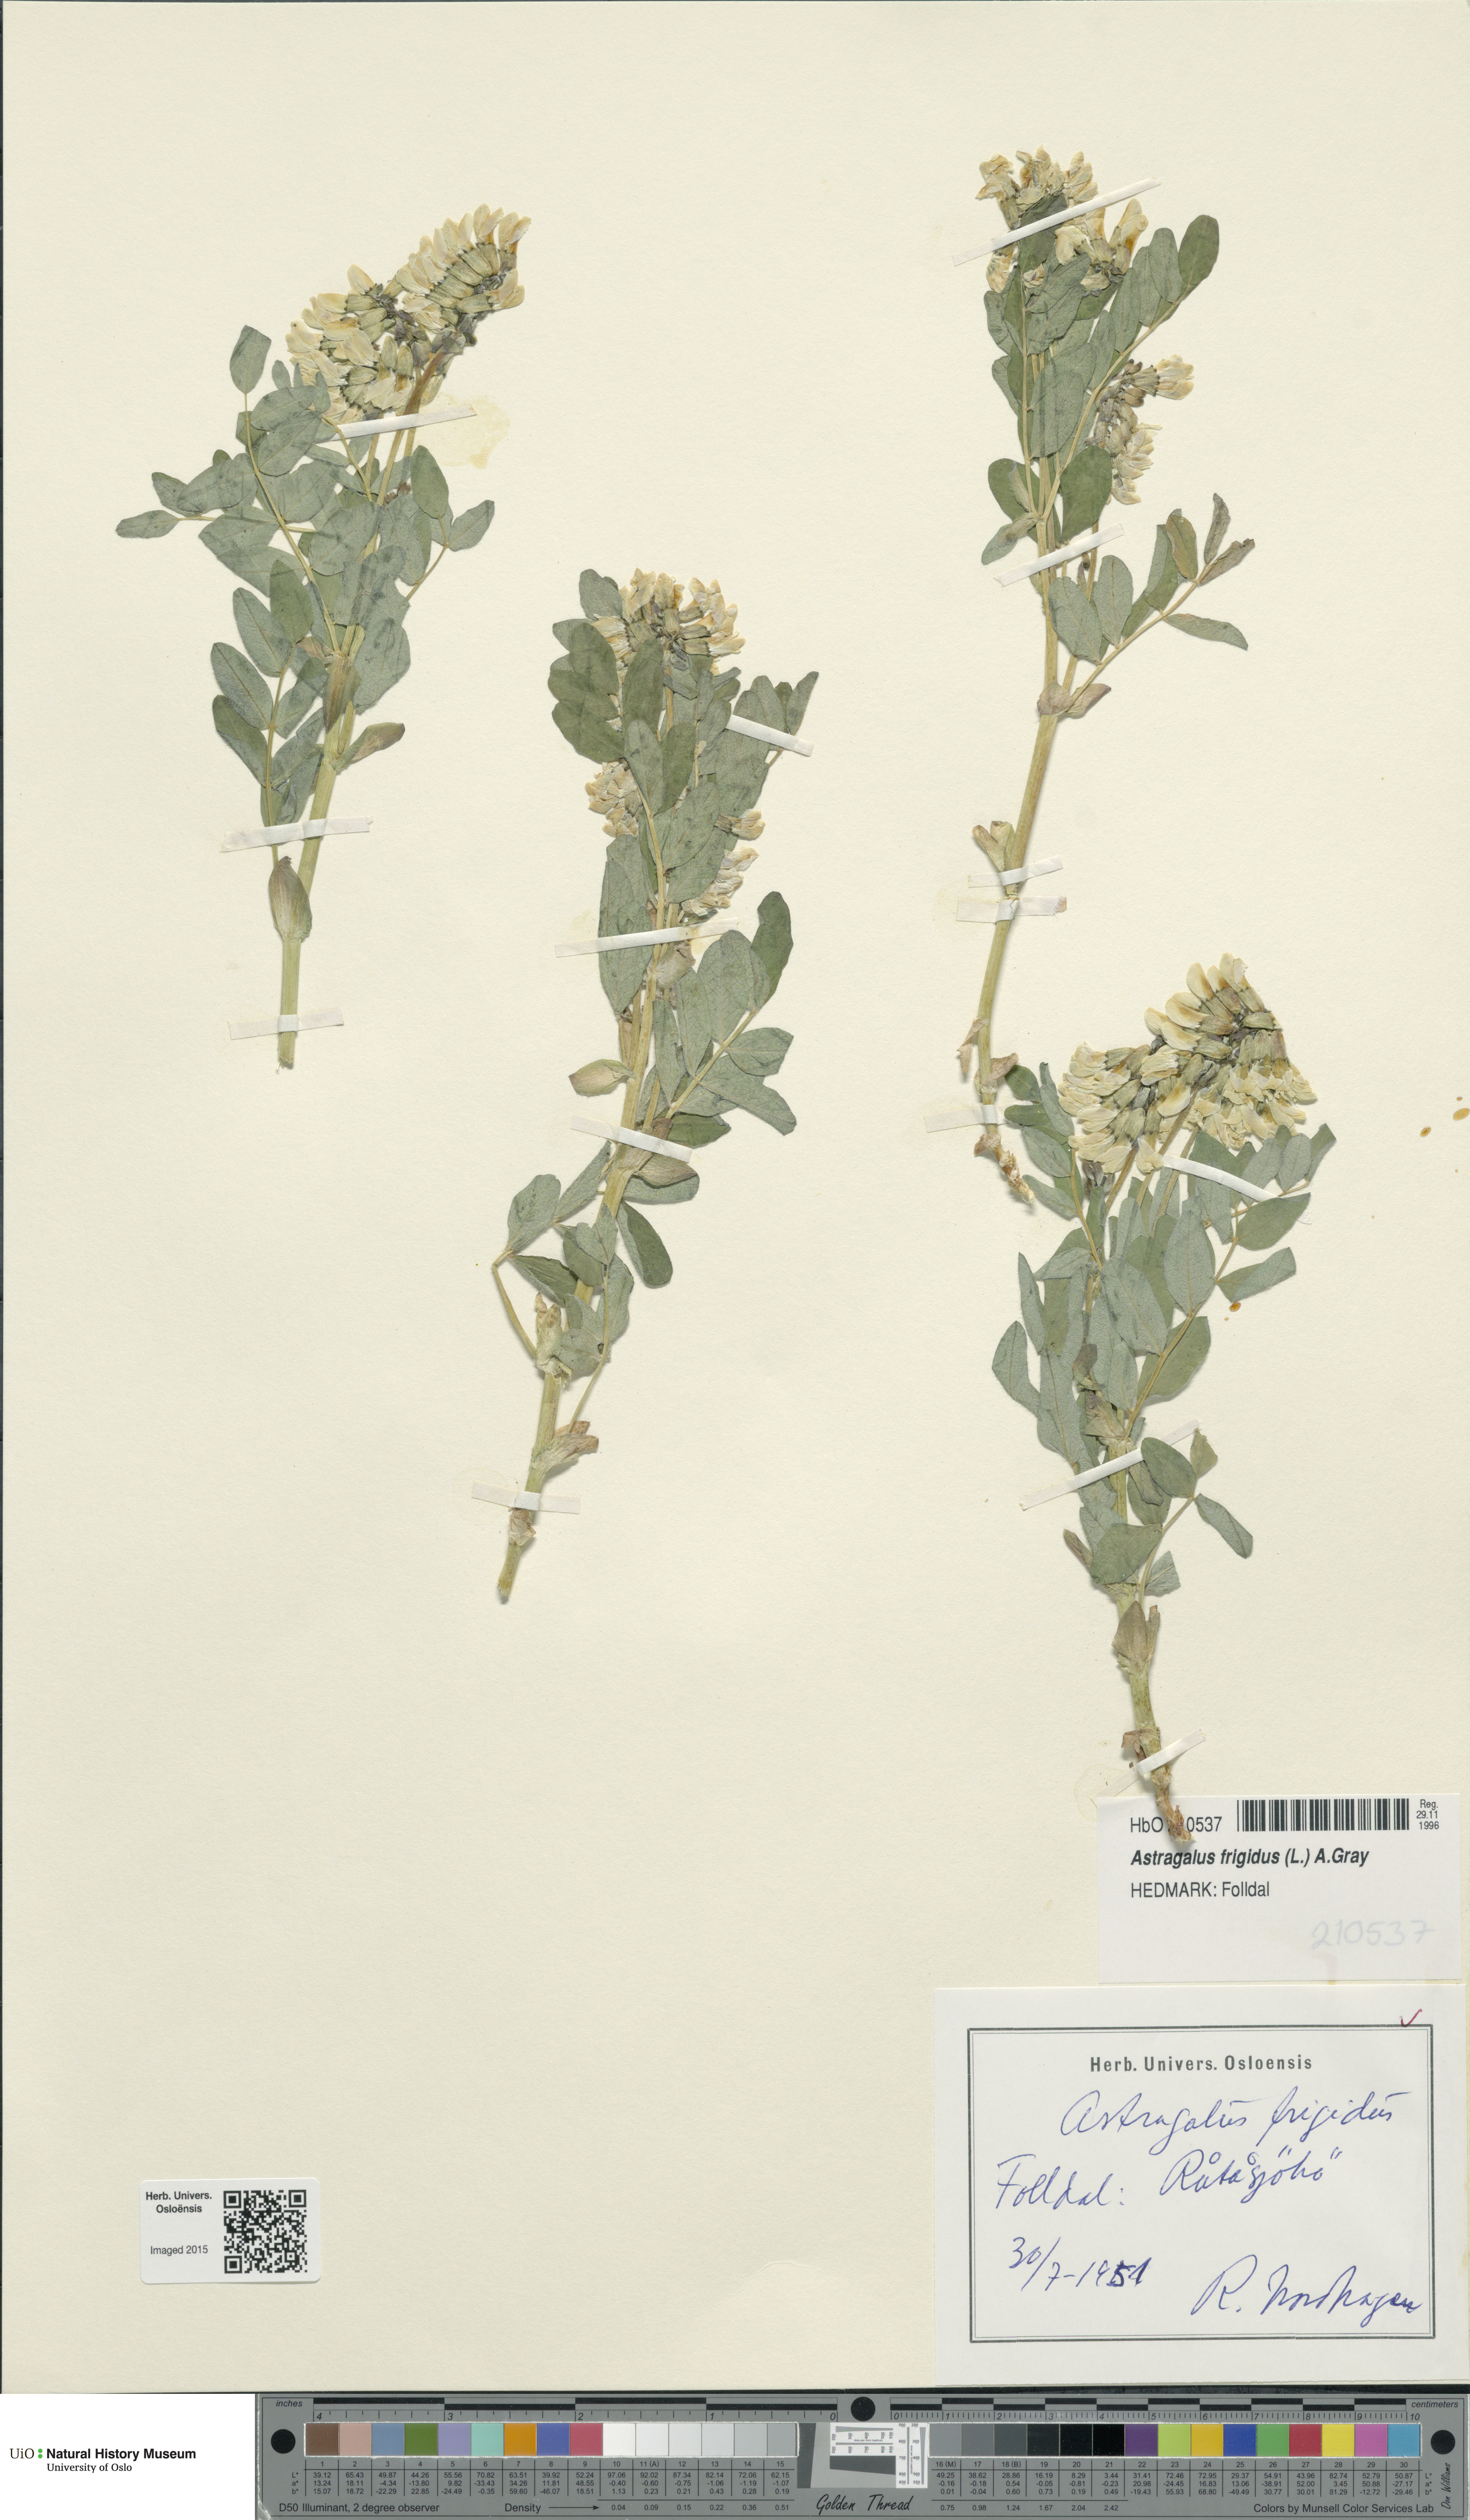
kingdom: Plantae
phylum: Tracheophyta
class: Magnoliopsida
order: Fabales
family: Fabaceae
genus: Astragalus
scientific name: Astragalus frigidus
